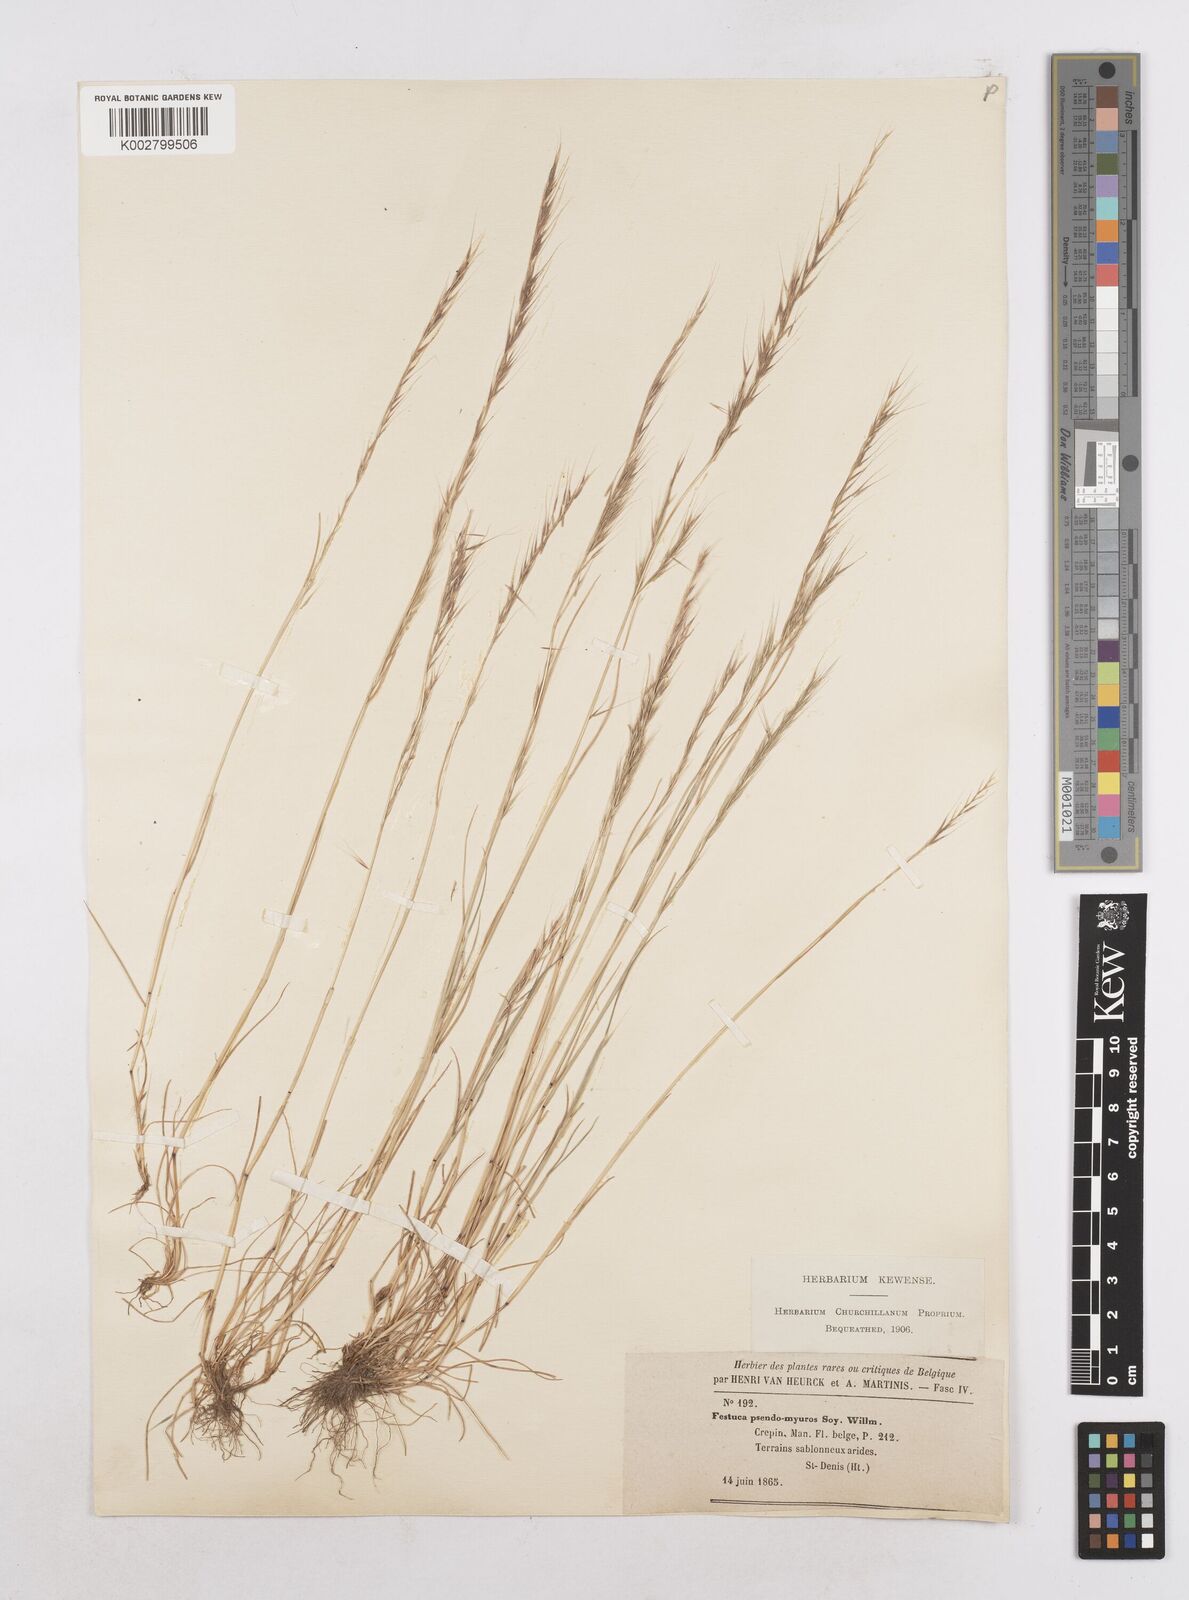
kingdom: Plantae
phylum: Tracheophyta
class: Liliopsida
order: Poales
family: Poaceae
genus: Festuca
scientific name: Festuca myuros
